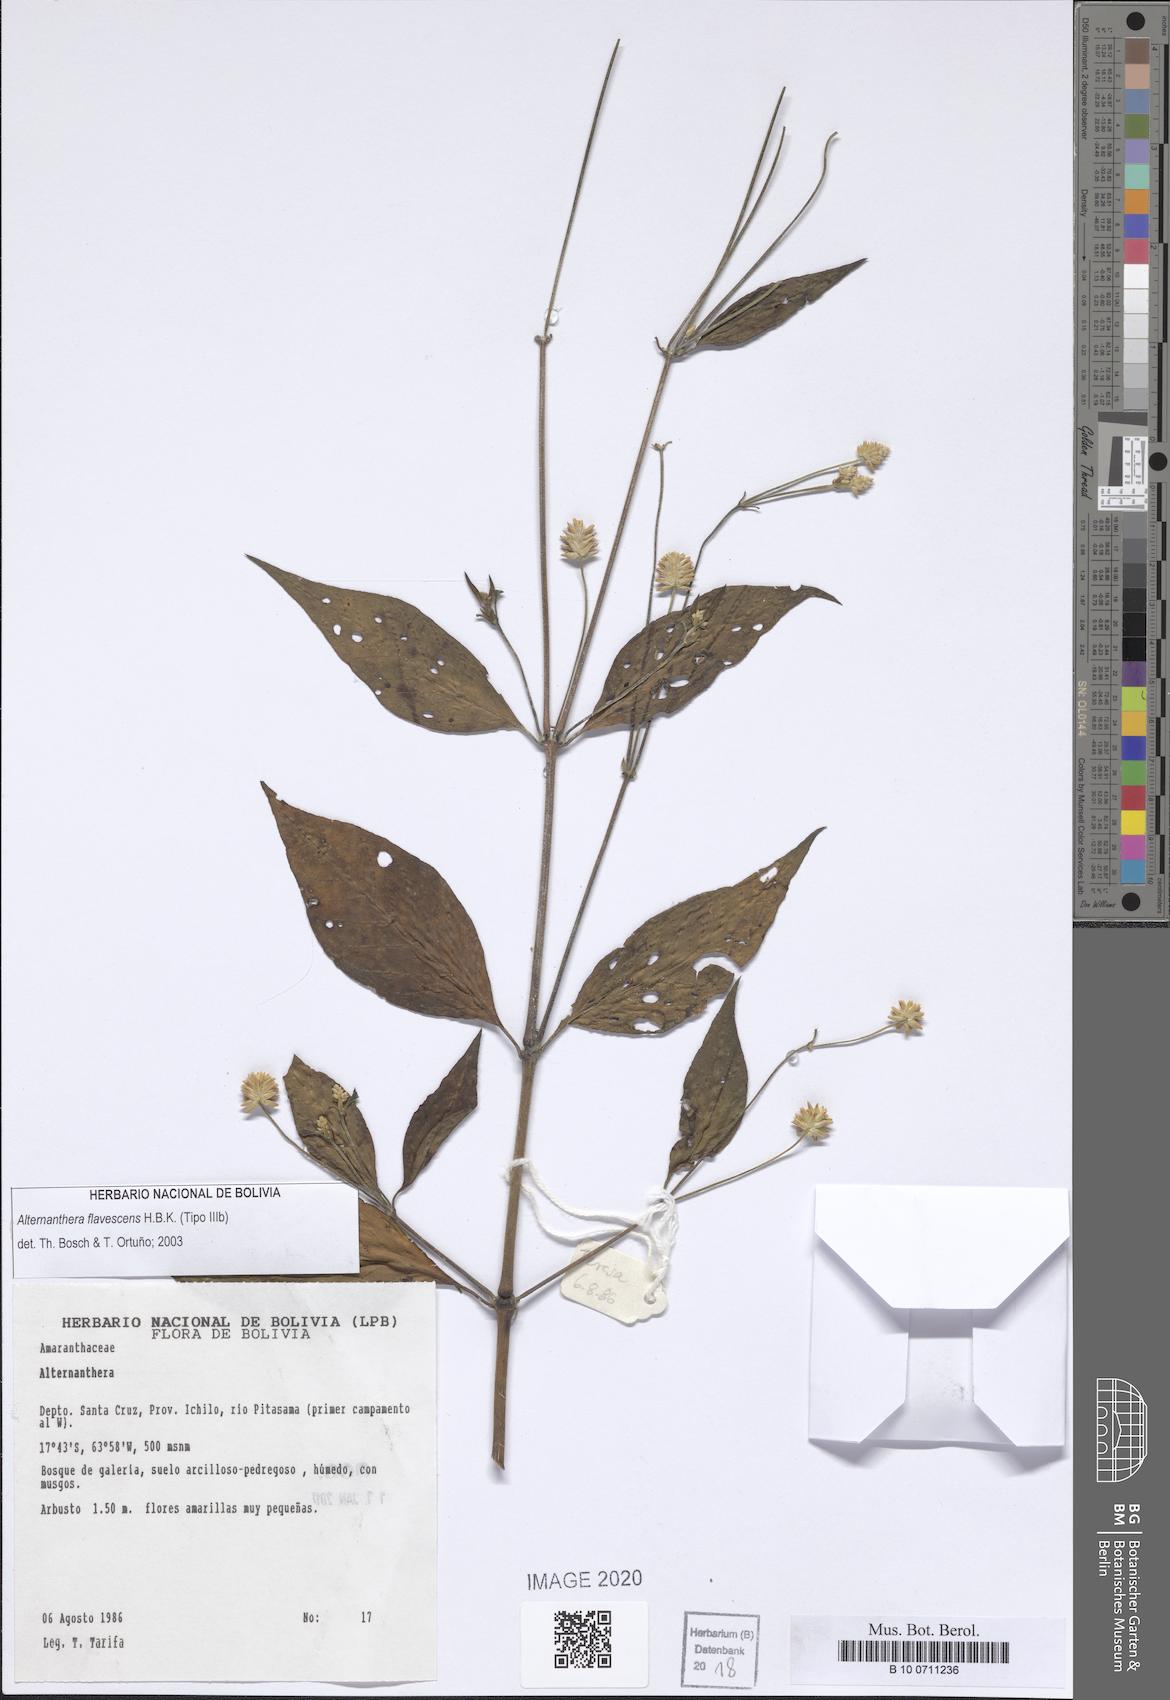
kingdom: Plantae
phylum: Tracheophyta
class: Magnoliopsida
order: Caryophyllales
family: Amaranthaceae
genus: Alternanthera
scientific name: Alternanthera flavescens
